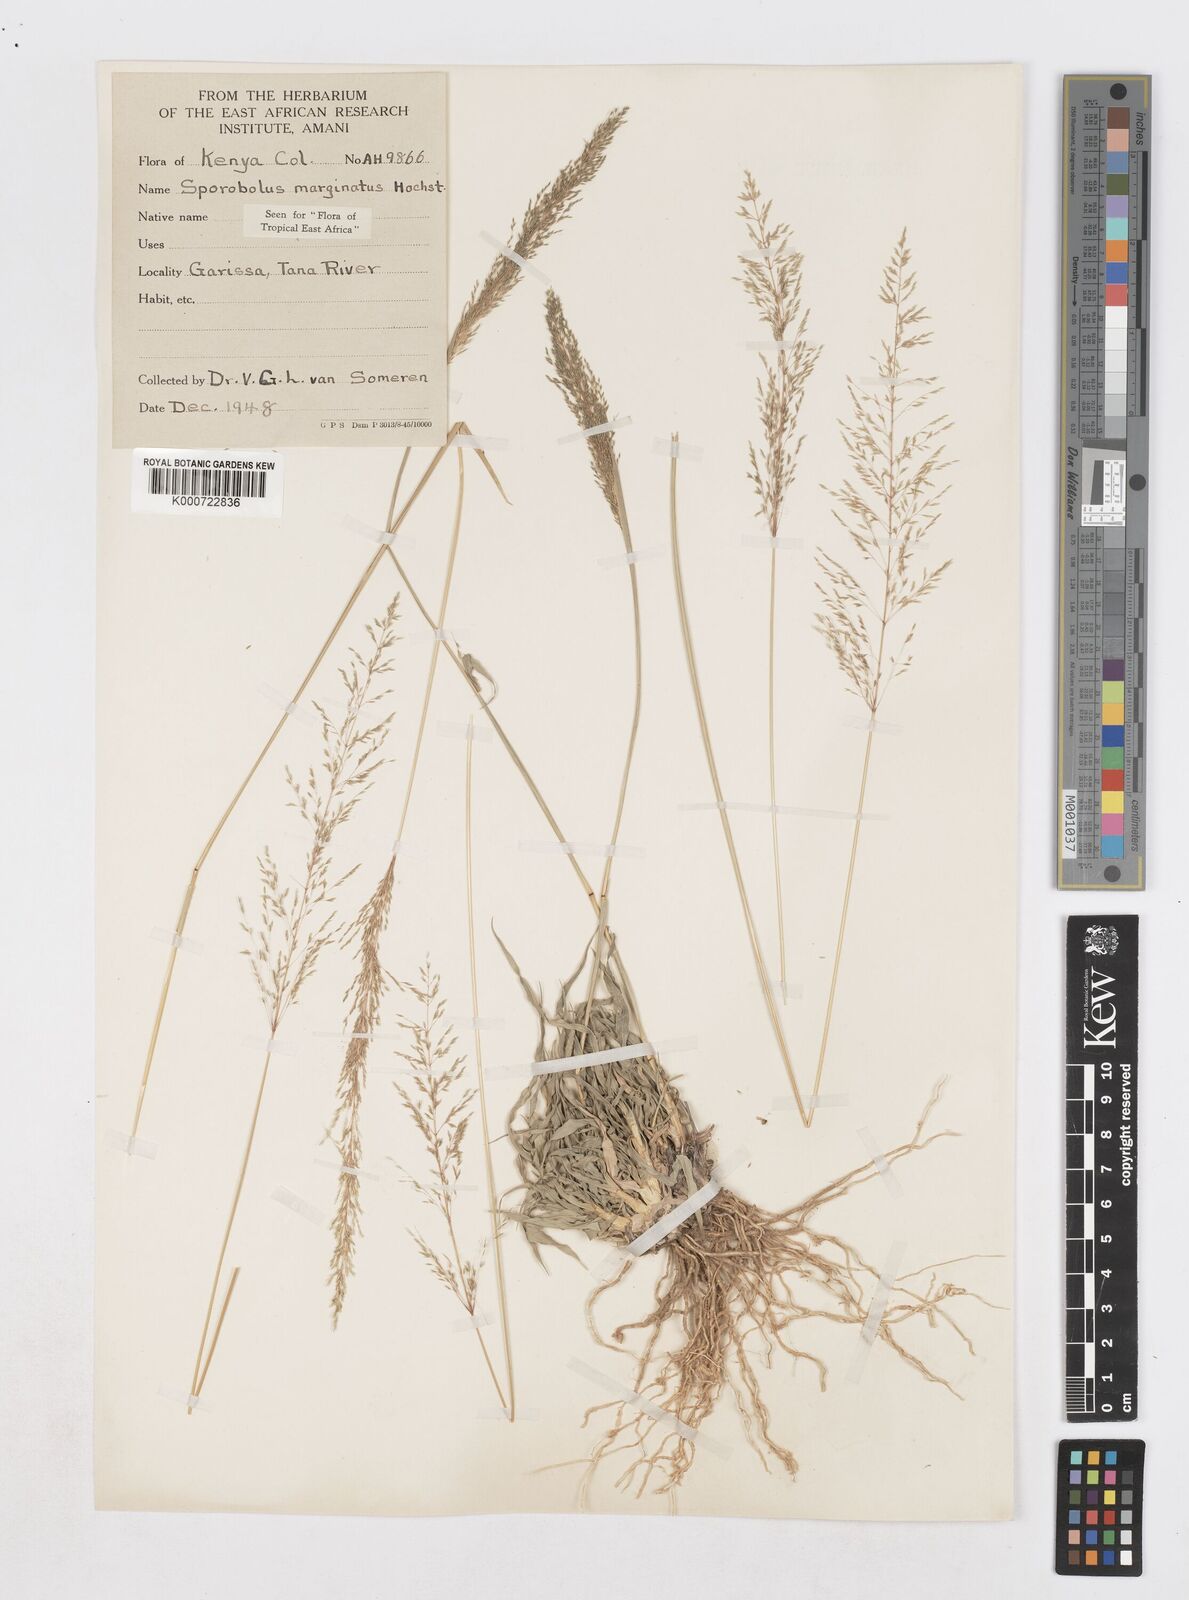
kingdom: Plantae
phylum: Tracheophyta
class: Liliopsida
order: Poales
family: Poaceae
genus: Sporobolus
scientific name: Sporobolus ioclados
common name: Pan dropseed
